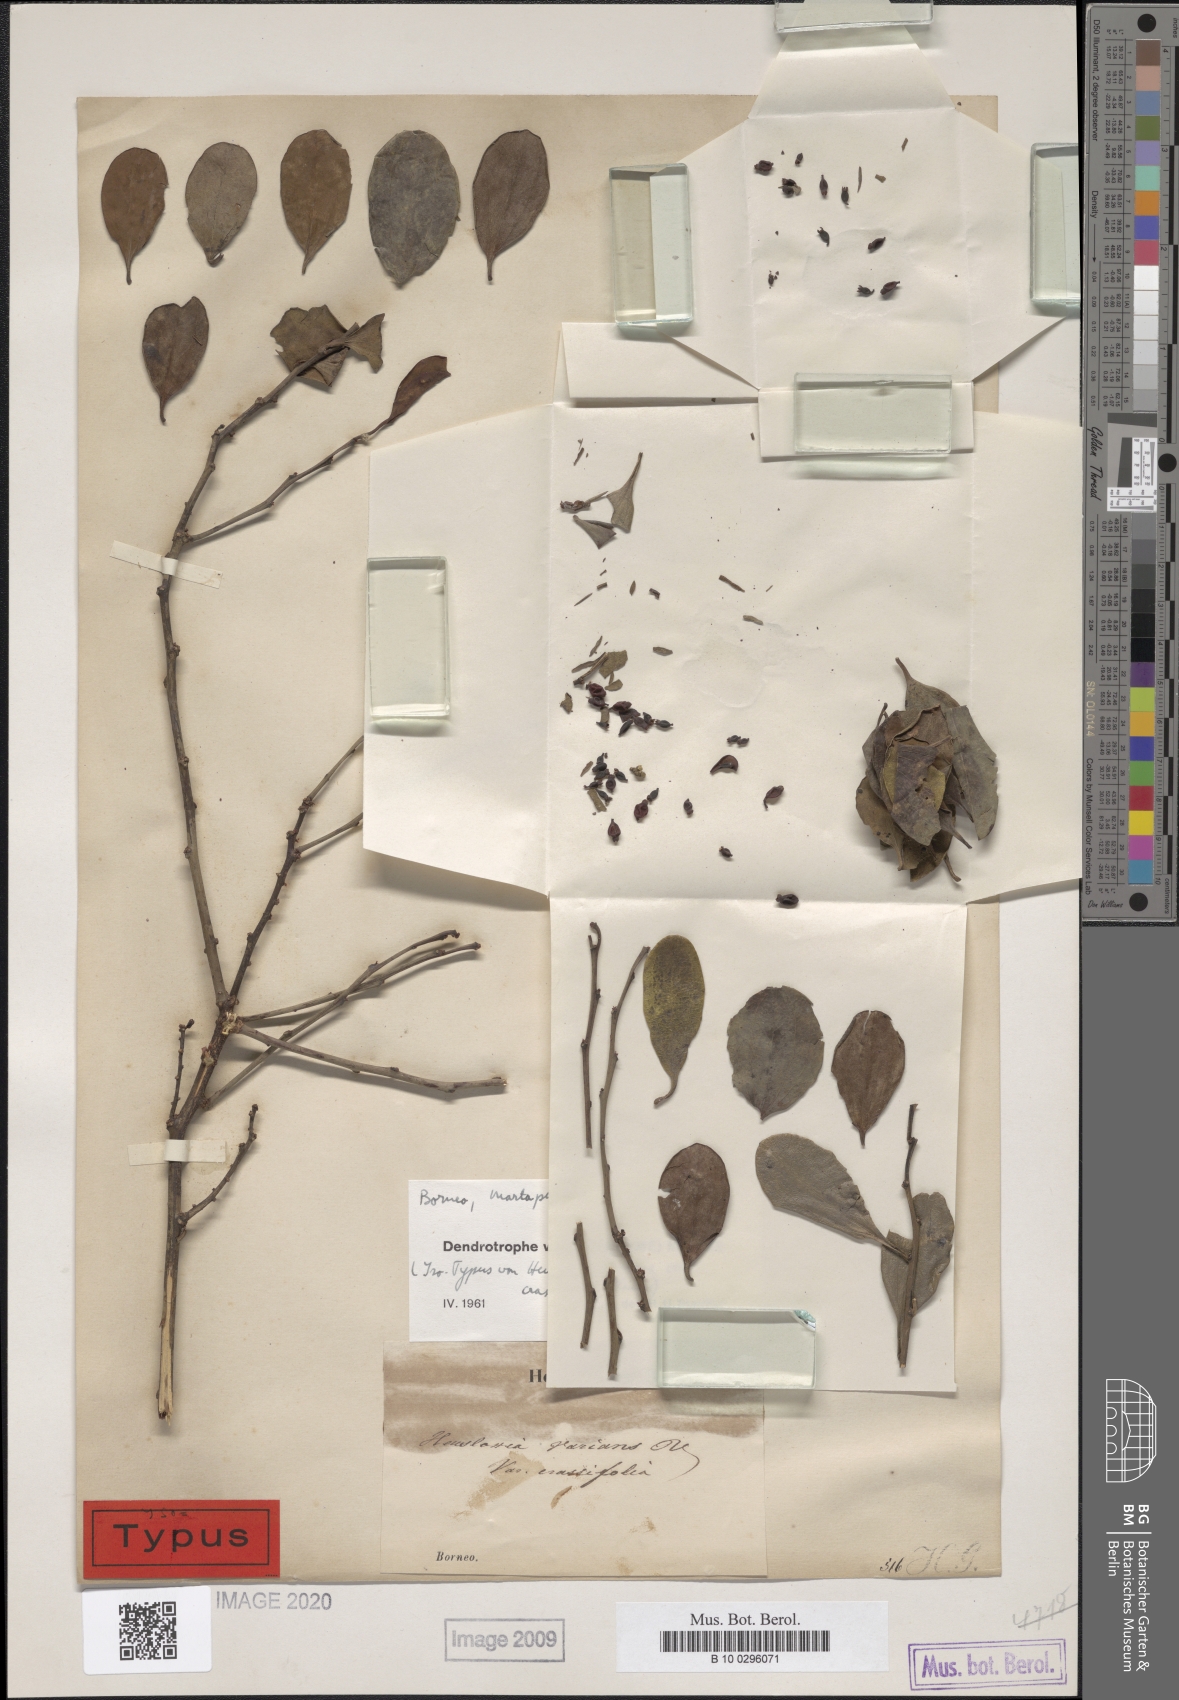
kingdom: Plantae
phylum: Tracheophyta
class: Magnoliopsida
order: Santalales
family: Amphorogynaceae
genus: Dendrotrophe
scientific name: Dendrotrophe varians
